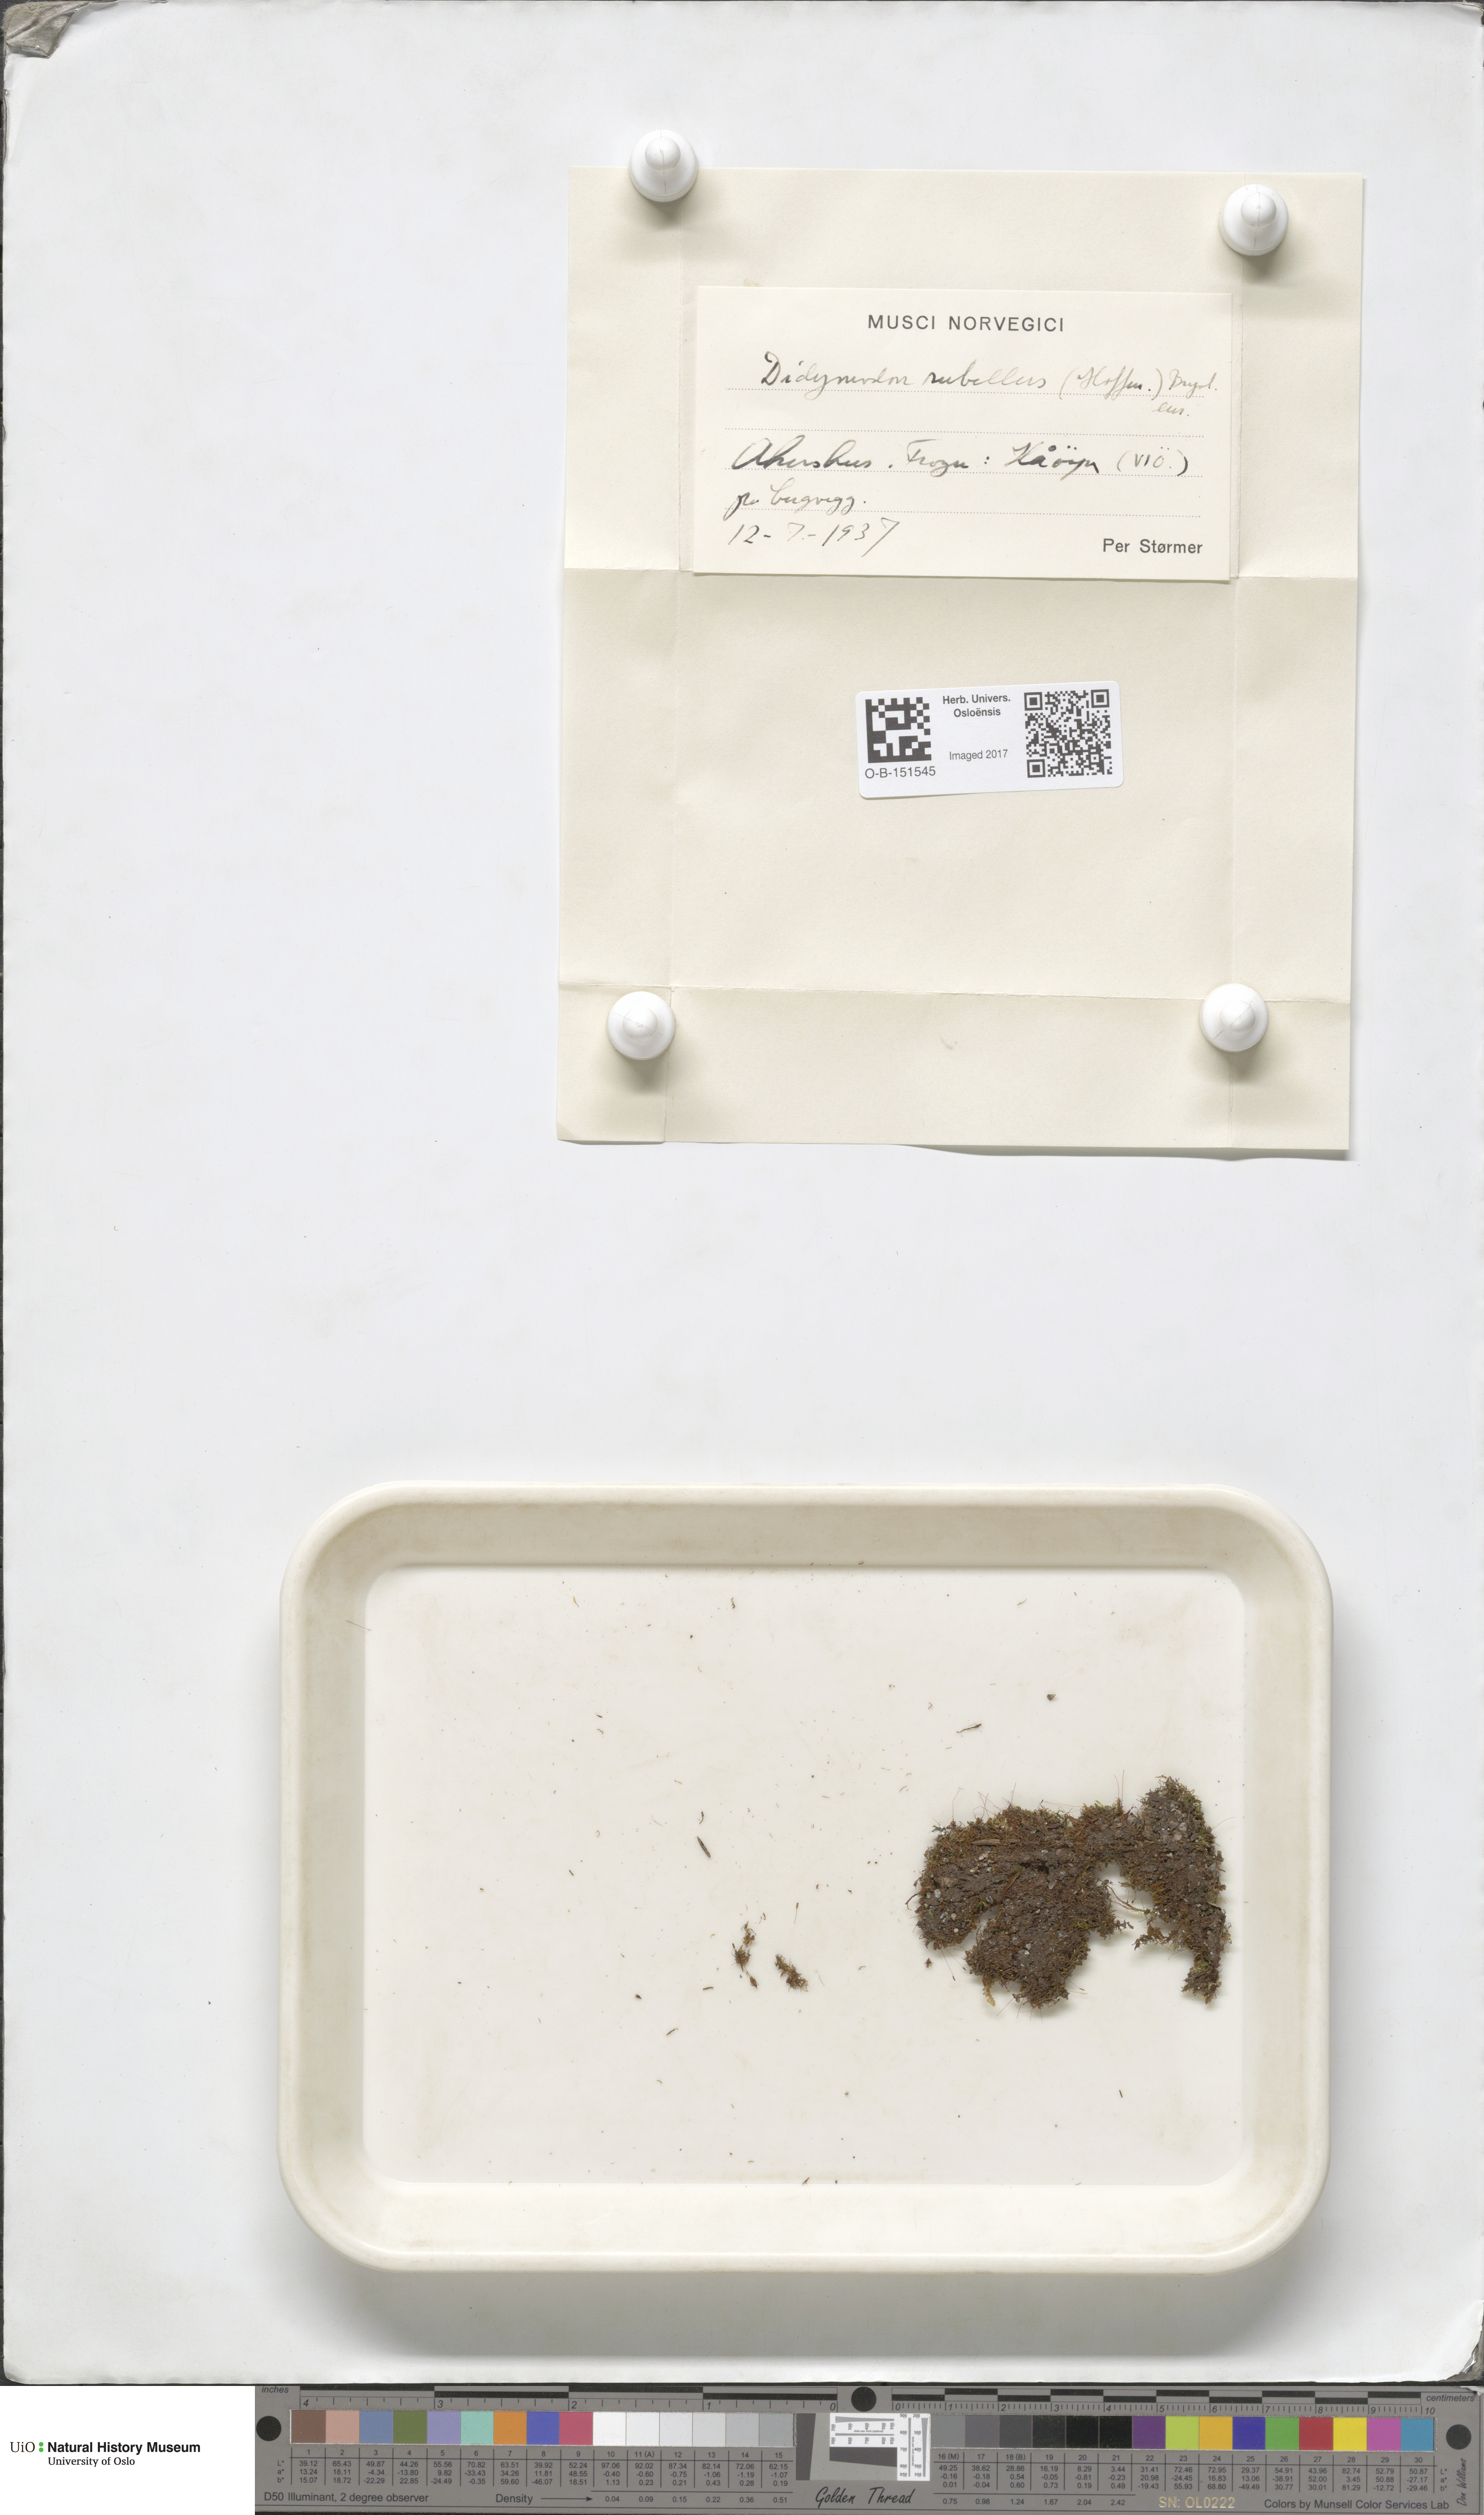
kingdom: Plantae
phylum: Bryophyta
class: Bryopsida
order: Pottiales
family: Pottiaceae
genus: Bryoerythrophyllum
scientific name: Bryoerythrophyllum recurvirostrum
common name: Red beard moss
